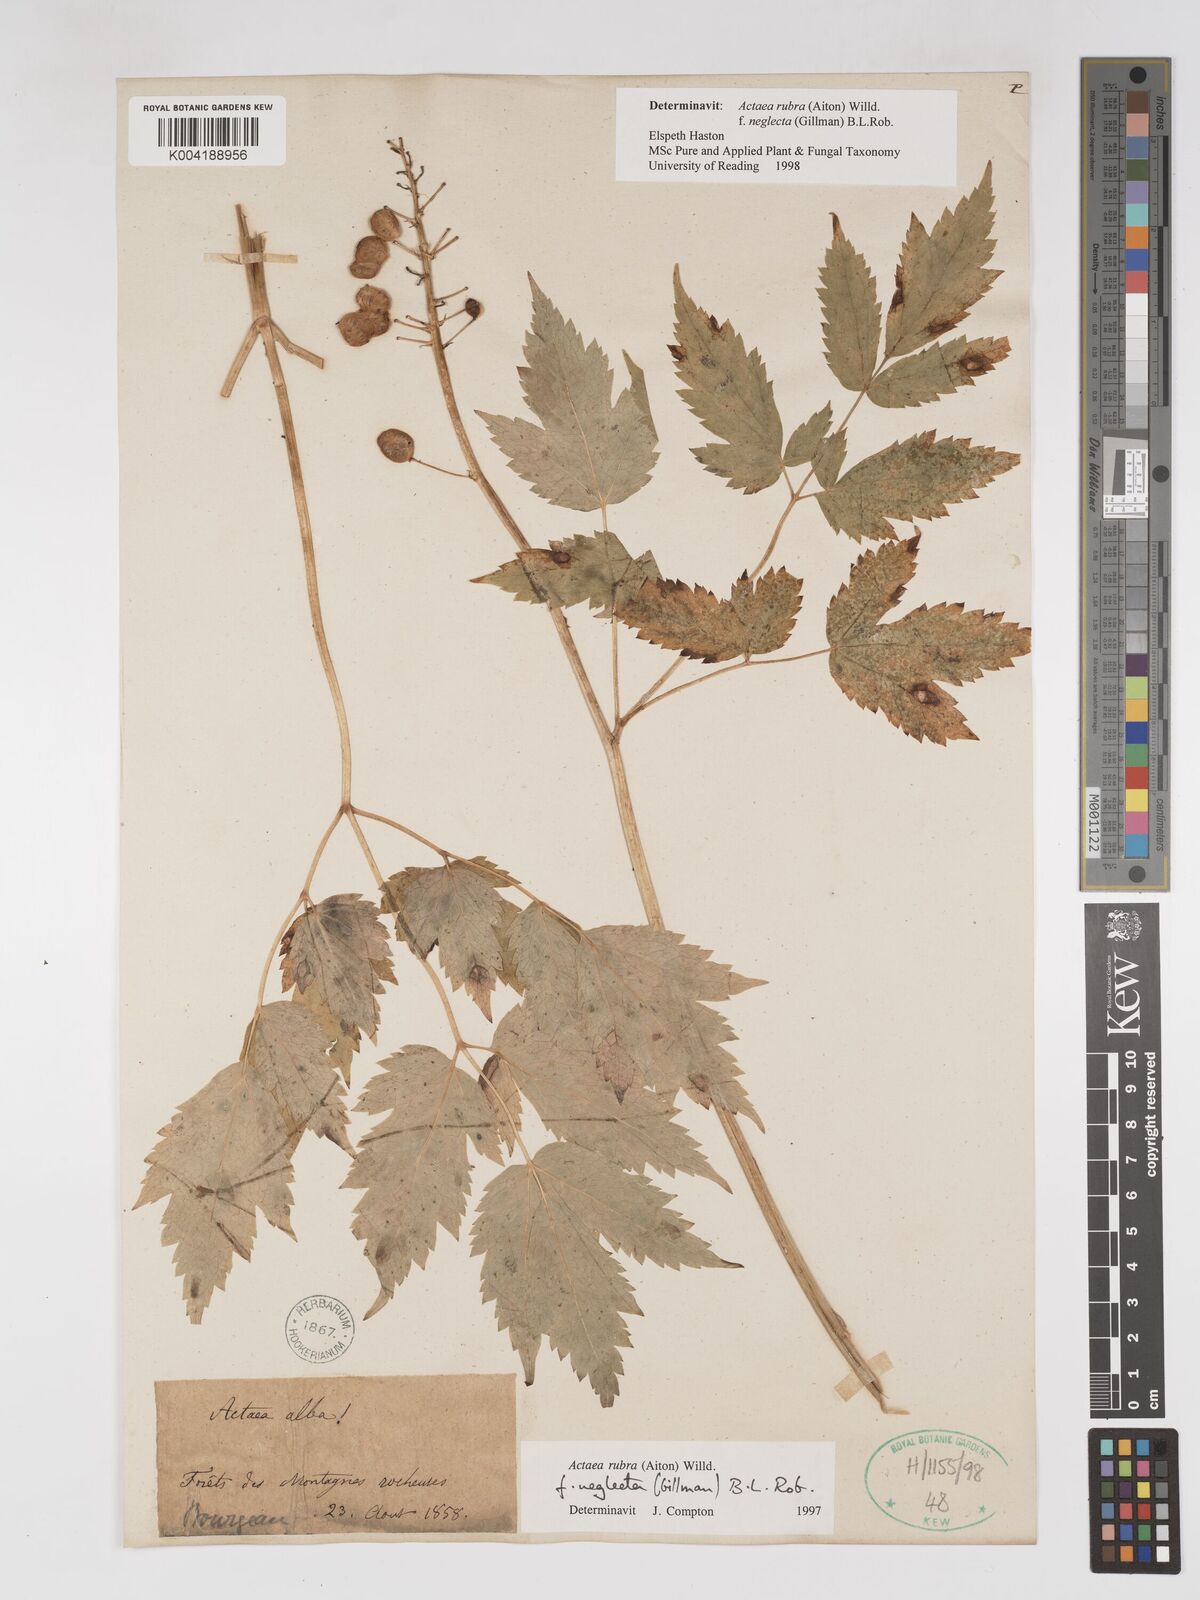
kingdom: Plantae
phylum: Tracheophyta
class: Magnoliopsida
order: Ranunculales
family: Ranunculaceae
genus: Actaea
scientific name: Actaea rubra
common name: Red baneberry
